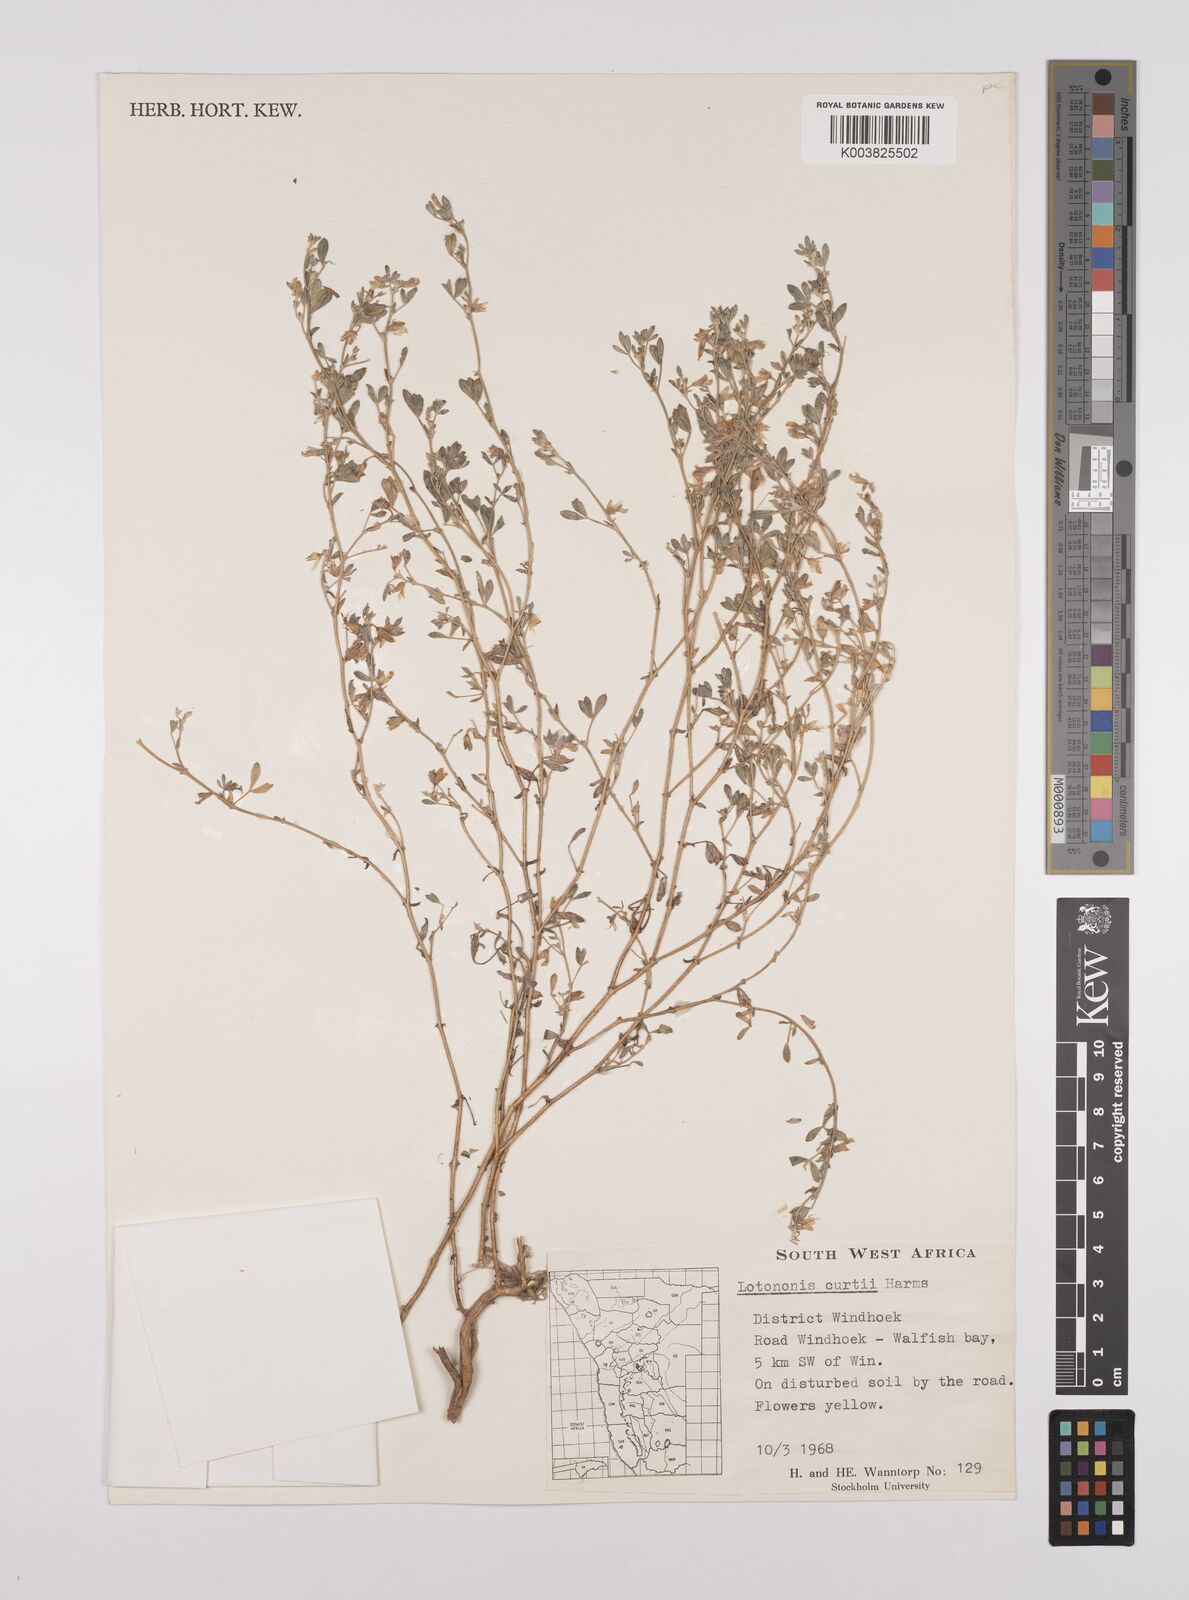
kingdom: Plantae
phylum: Tracheophyta
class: Magnoliopsida
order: Fabales
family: Fabaceae
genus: Lotononis
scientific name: Lotononis curtii
